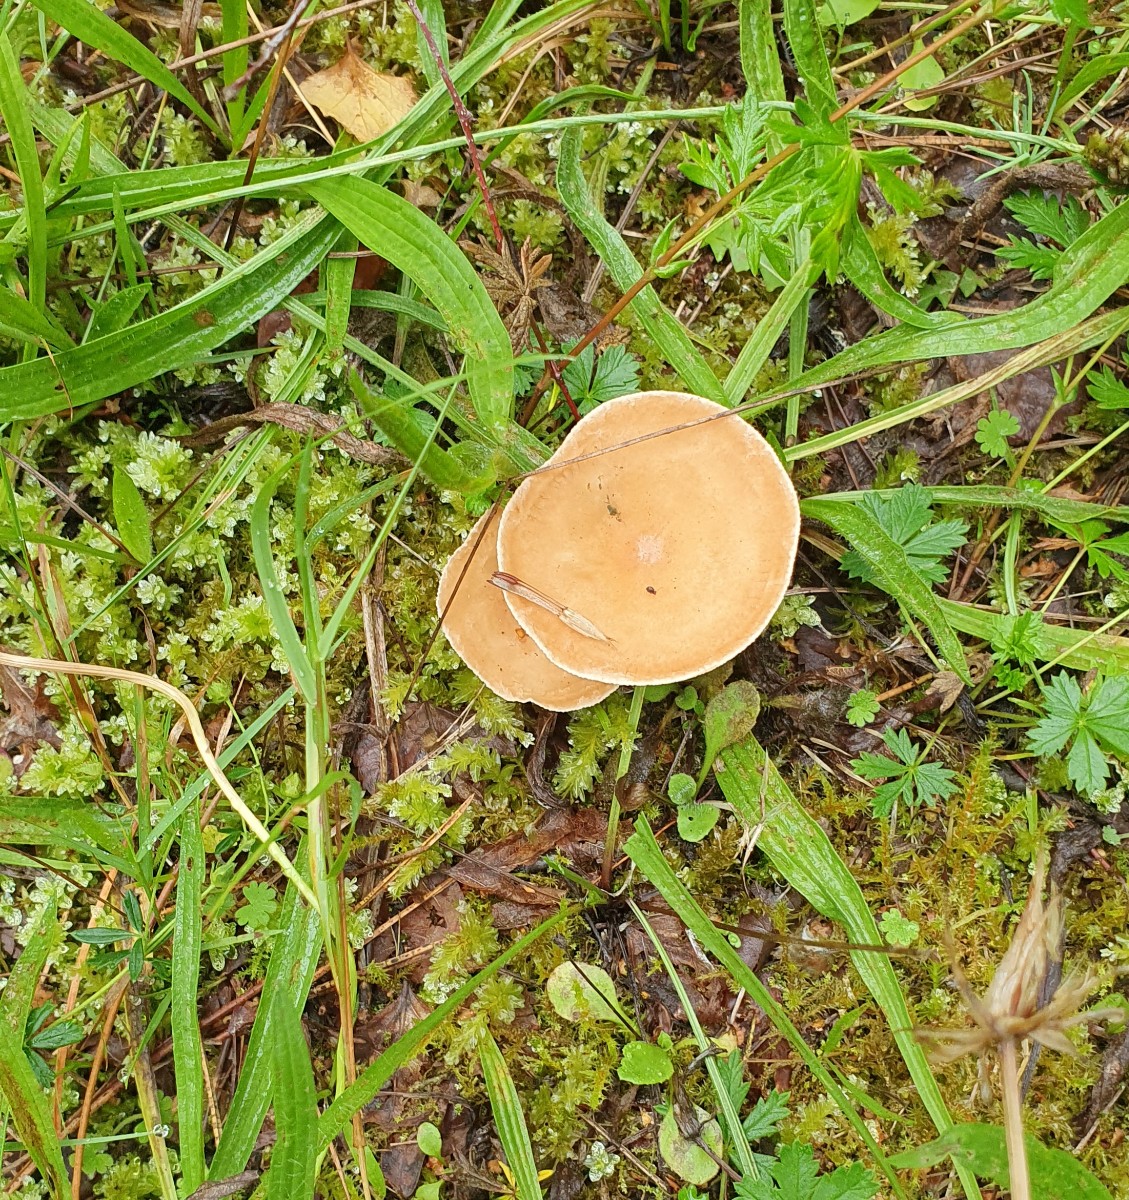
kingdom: Fungi
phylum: Basidiomycota
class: Agaricomycetes
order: Agaricales
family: Tricholomataceae
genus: Infundibulicybe
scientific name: Infundibulicybe gibba
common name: almindelig tragthat
